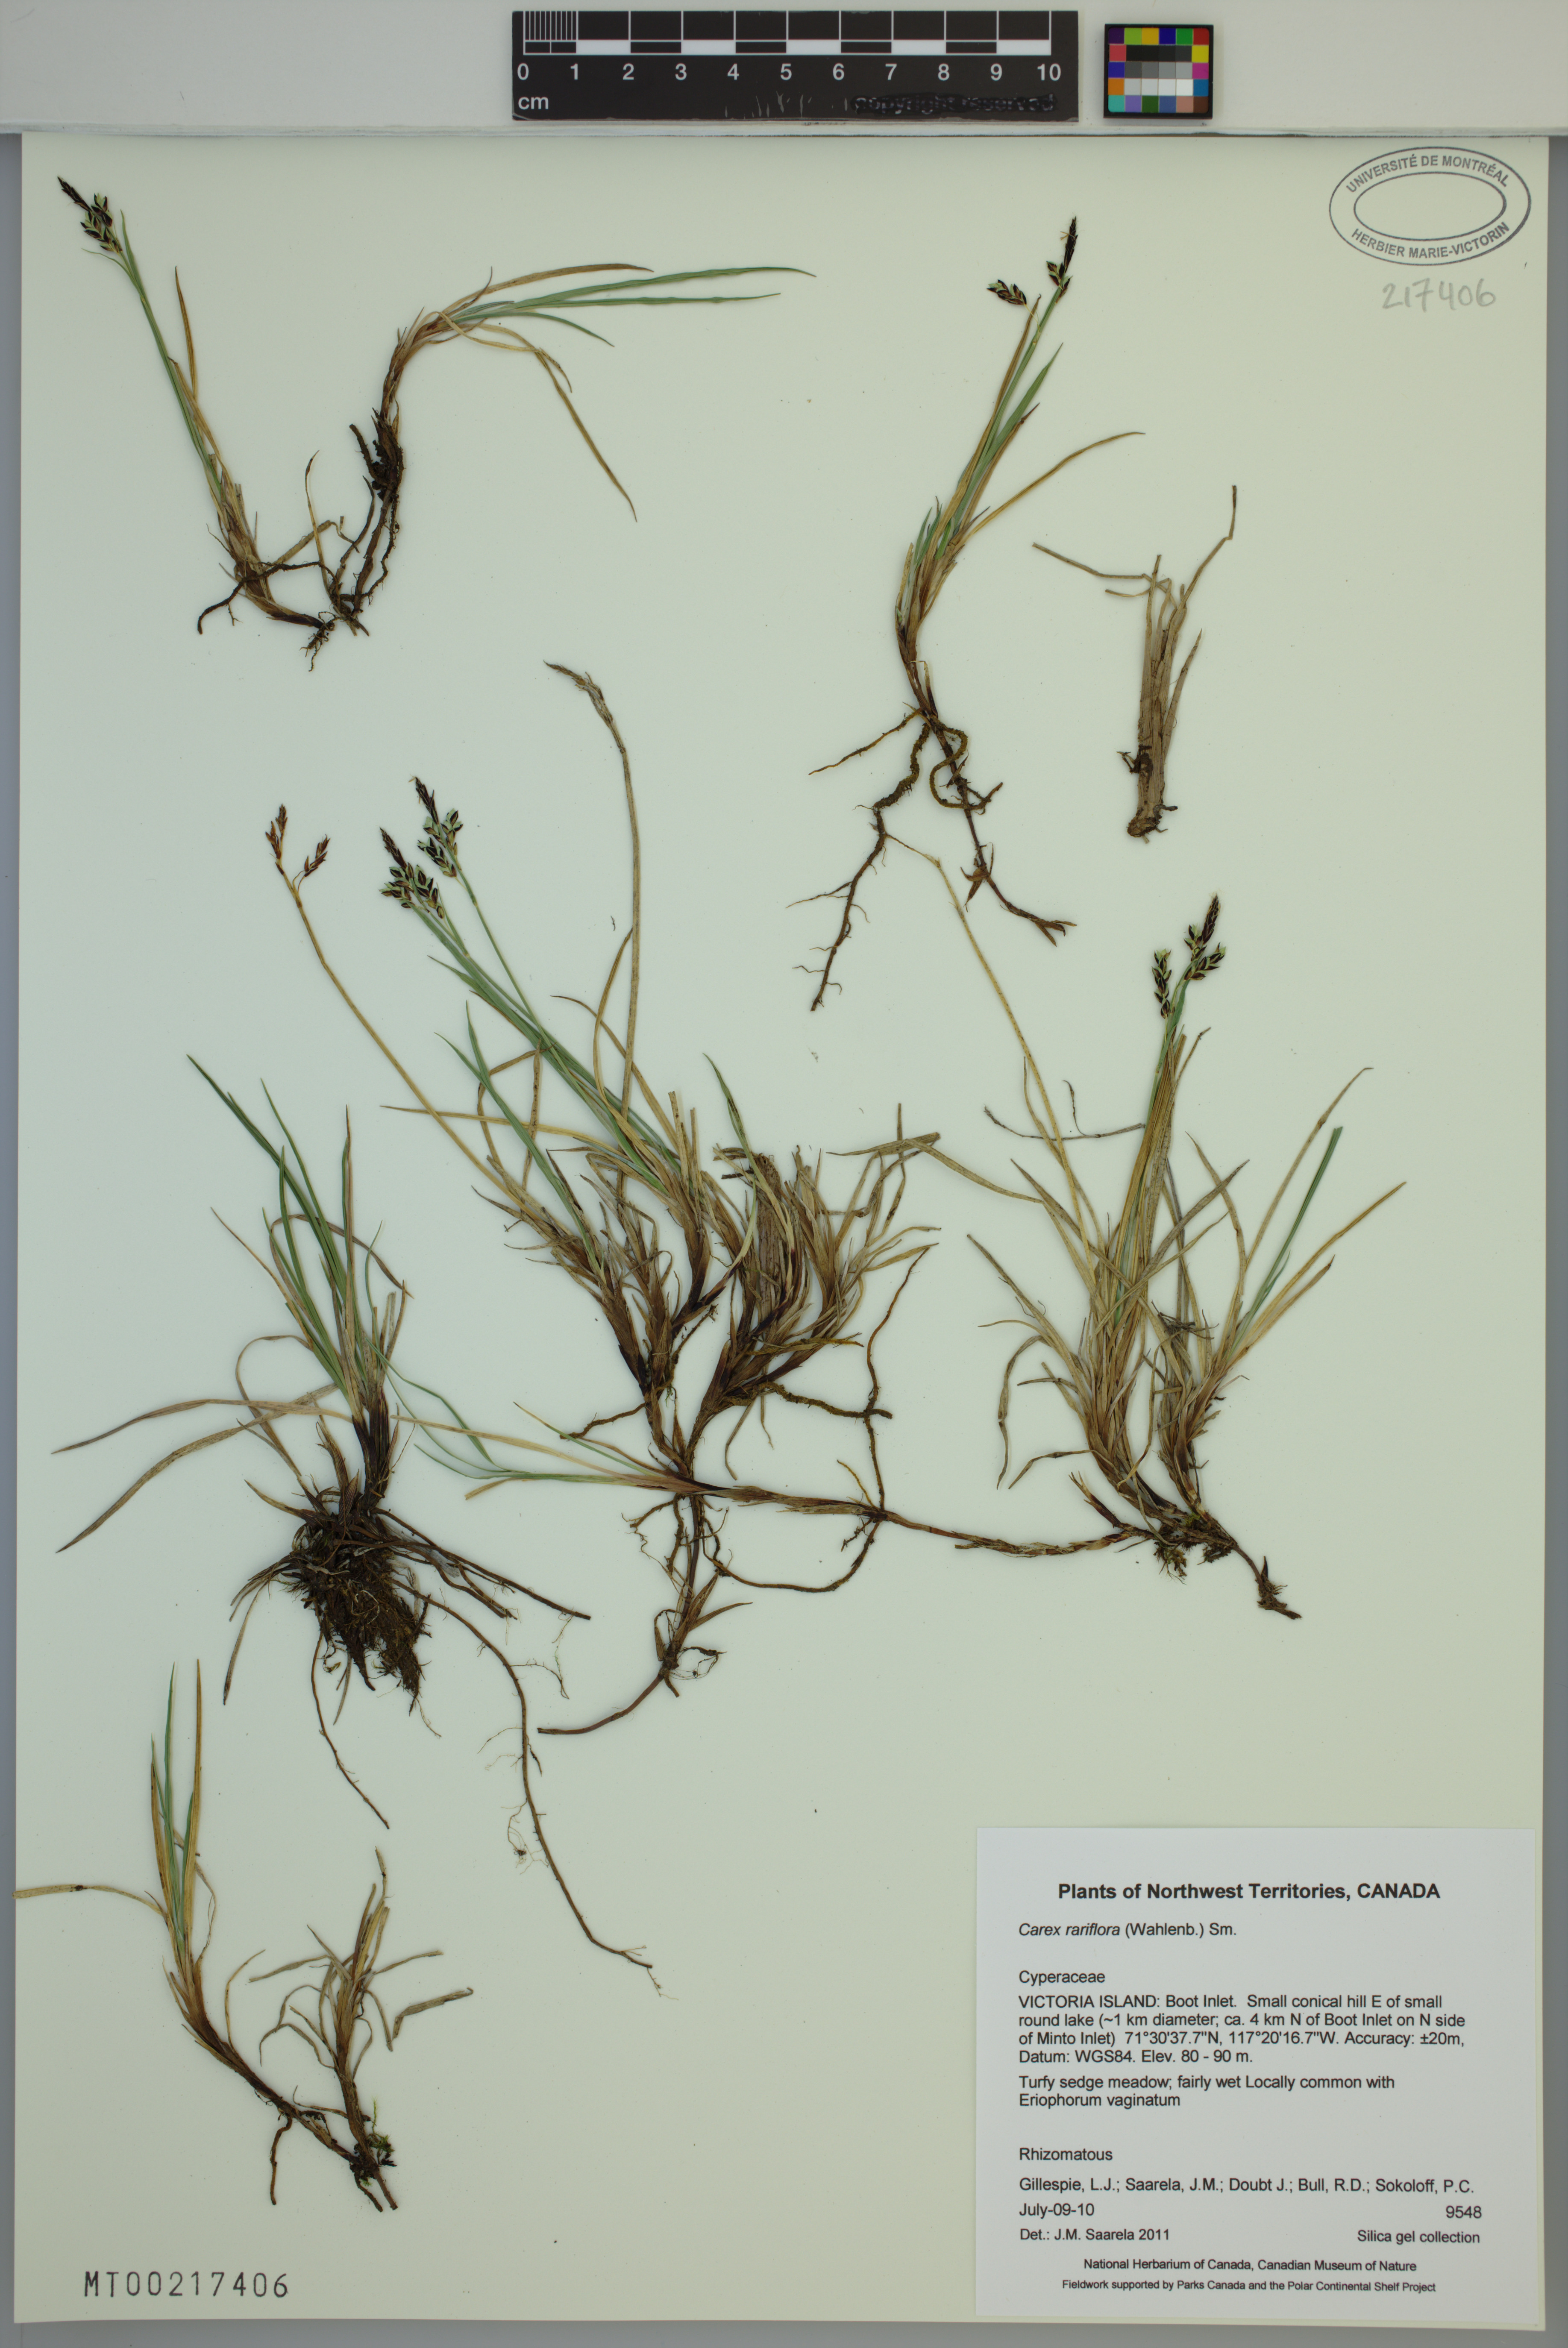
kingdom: Plantae
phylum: Tracheophyta
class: Liliopsida
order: Poales
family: Cyperaceae
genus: Carex
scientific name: Carex rariflora
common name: Loose-flowered alpine sedge
